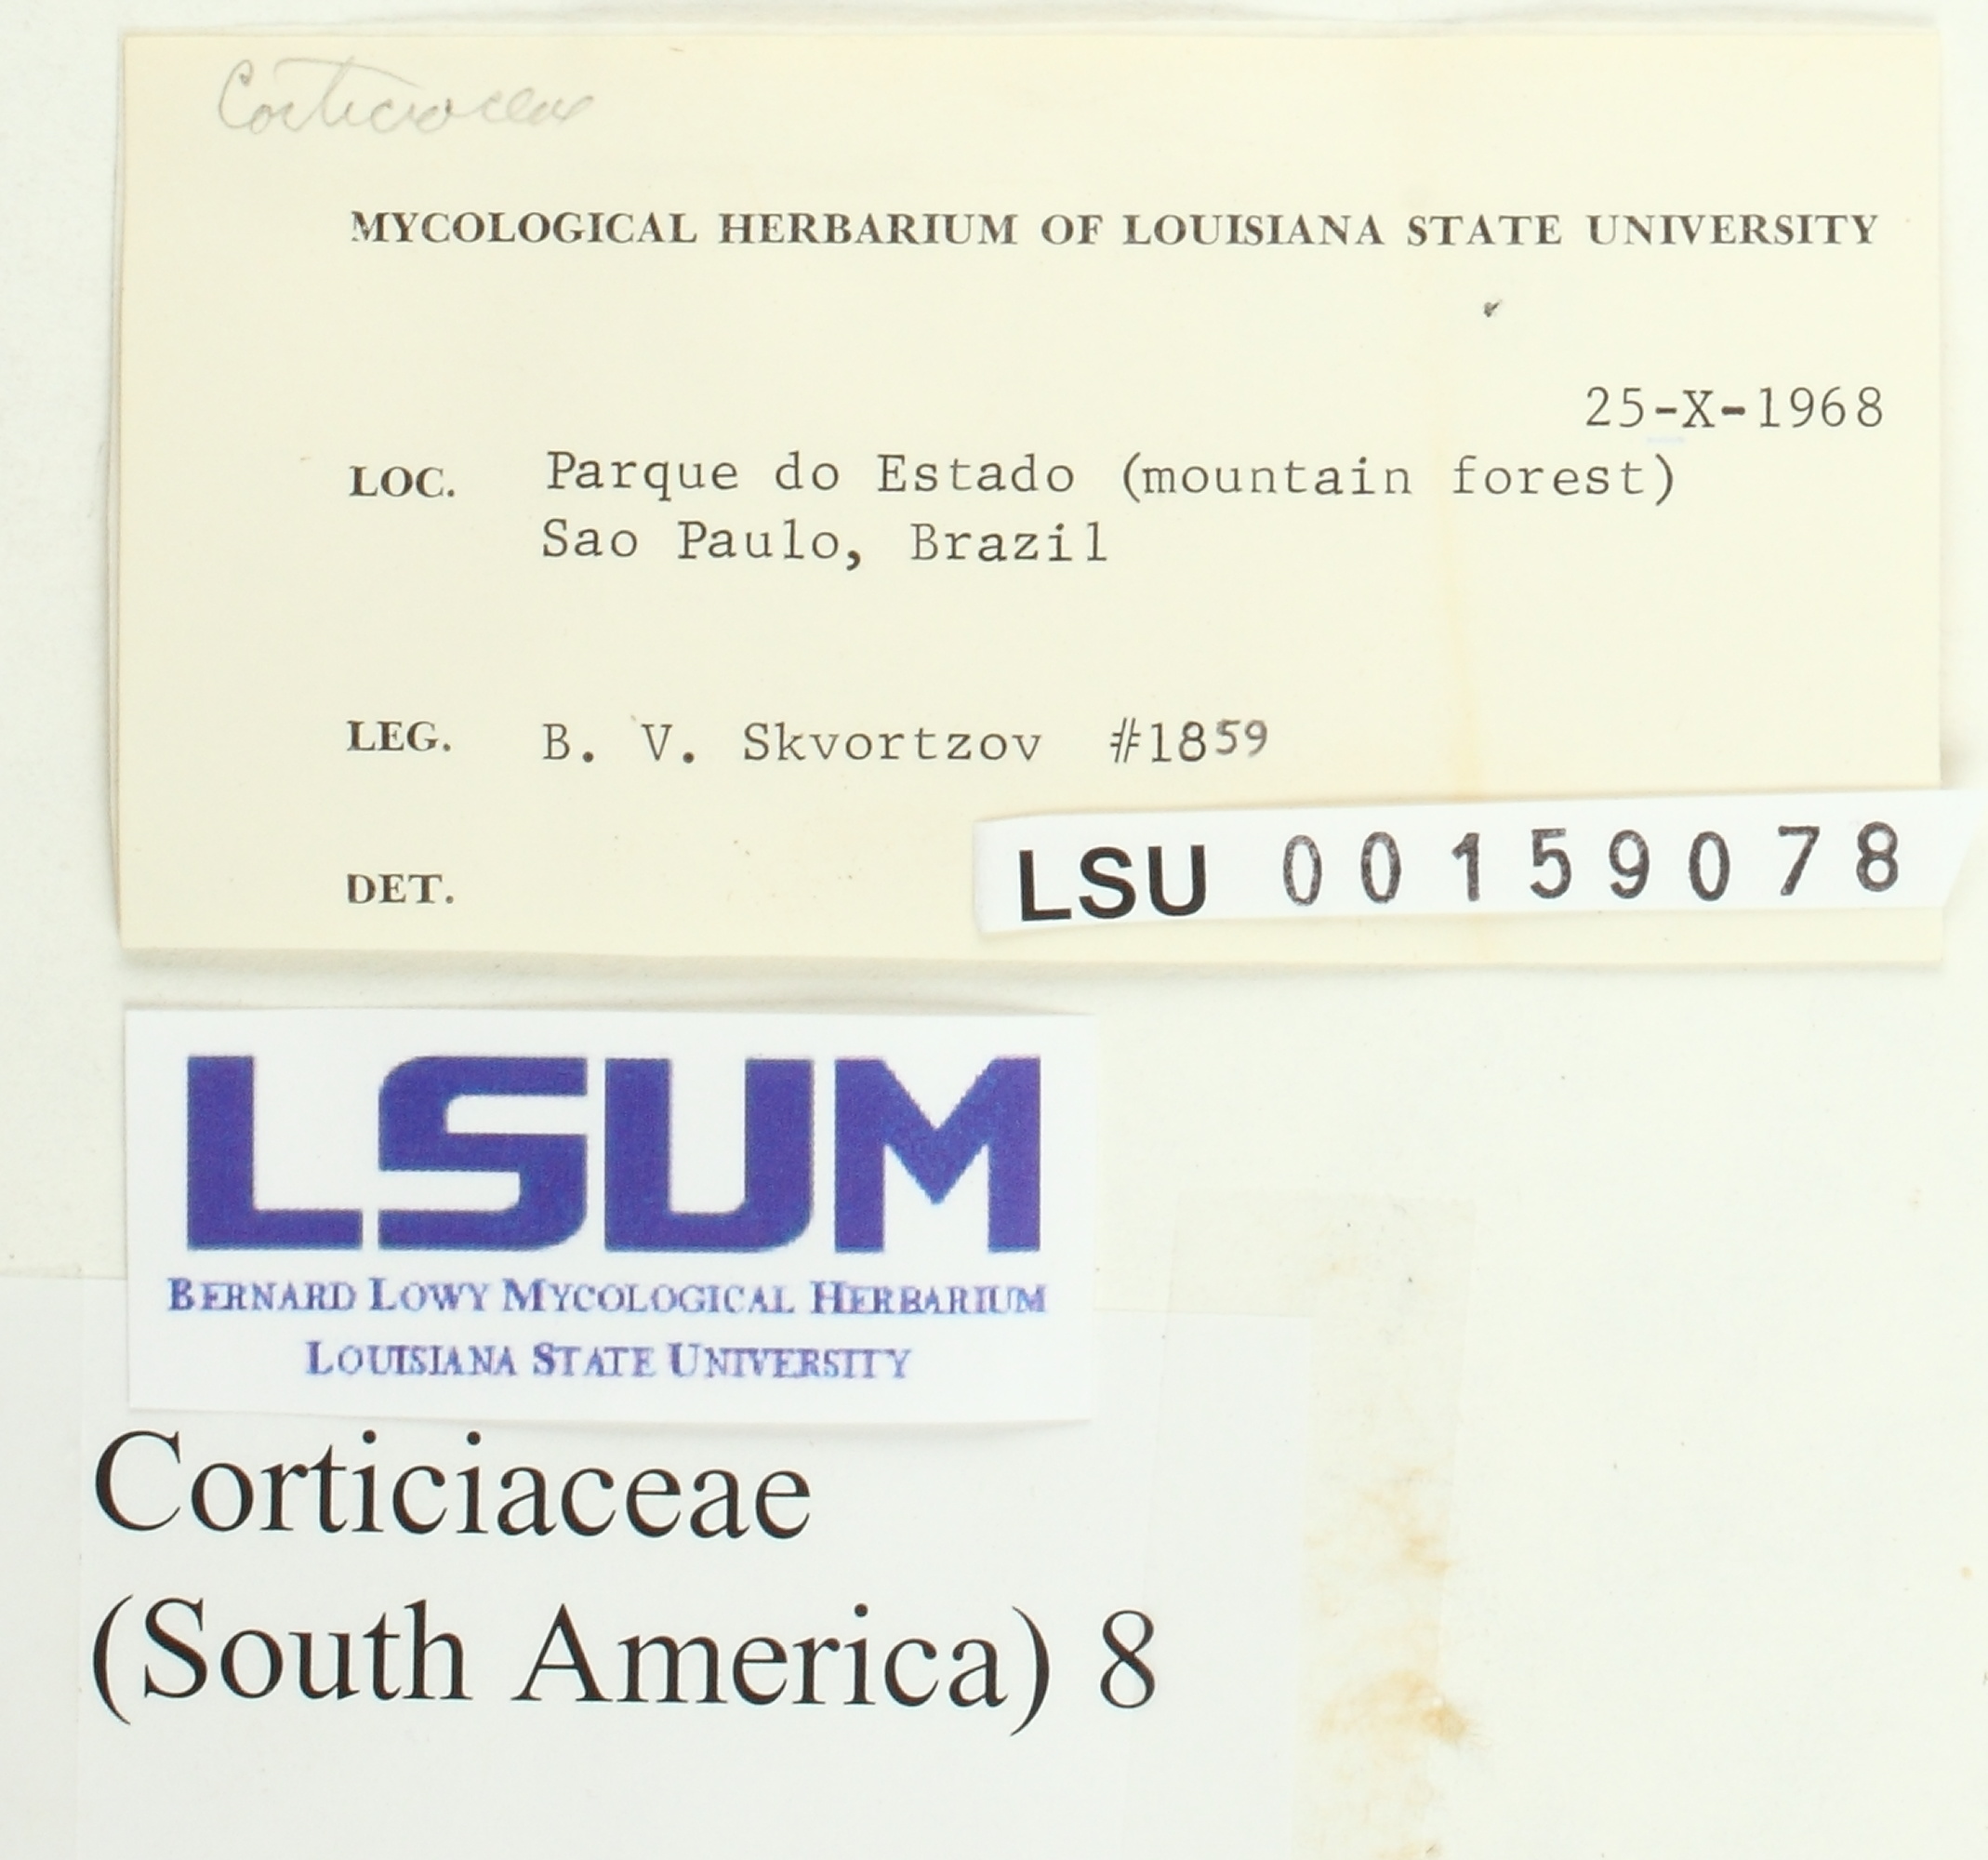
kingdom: Fungi
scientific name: Fungi
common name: Fungi
